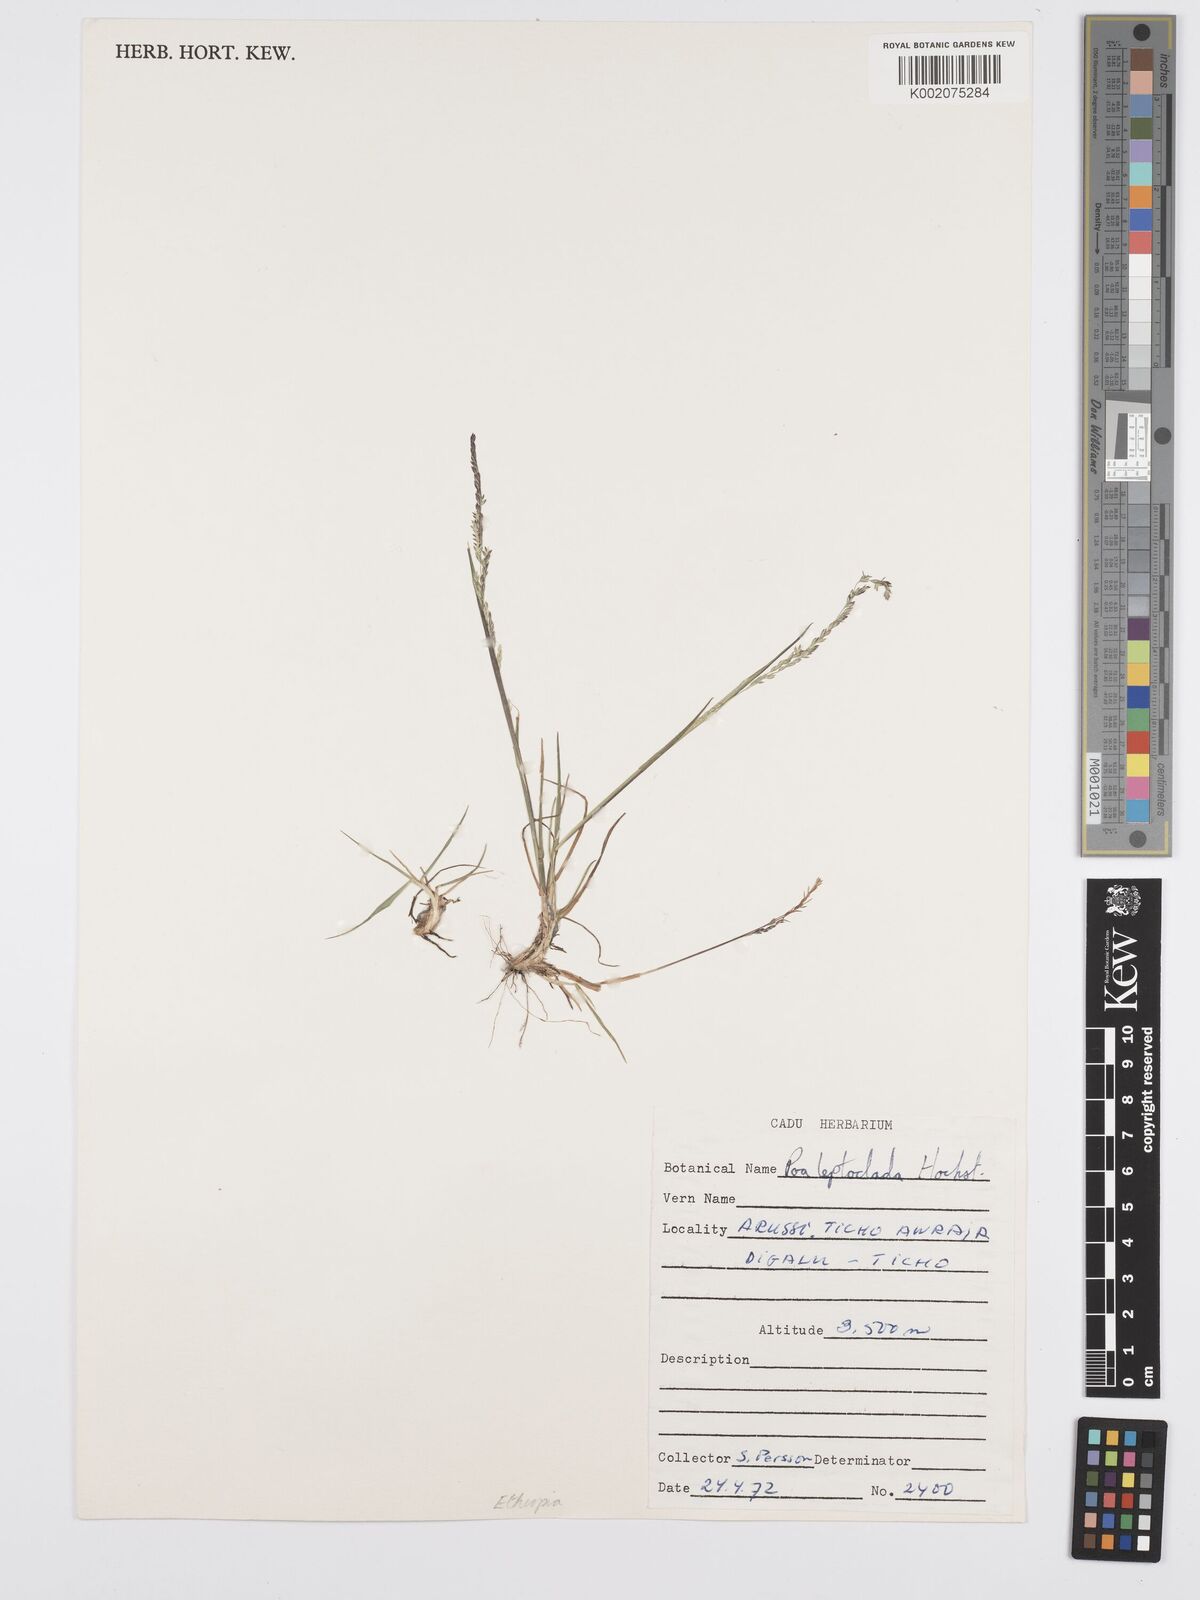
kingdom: Plantae
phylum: Tracheophyta
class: Liliopsida
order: Poales
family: Poaceae
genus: Poa
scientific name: Poa leptoclada
